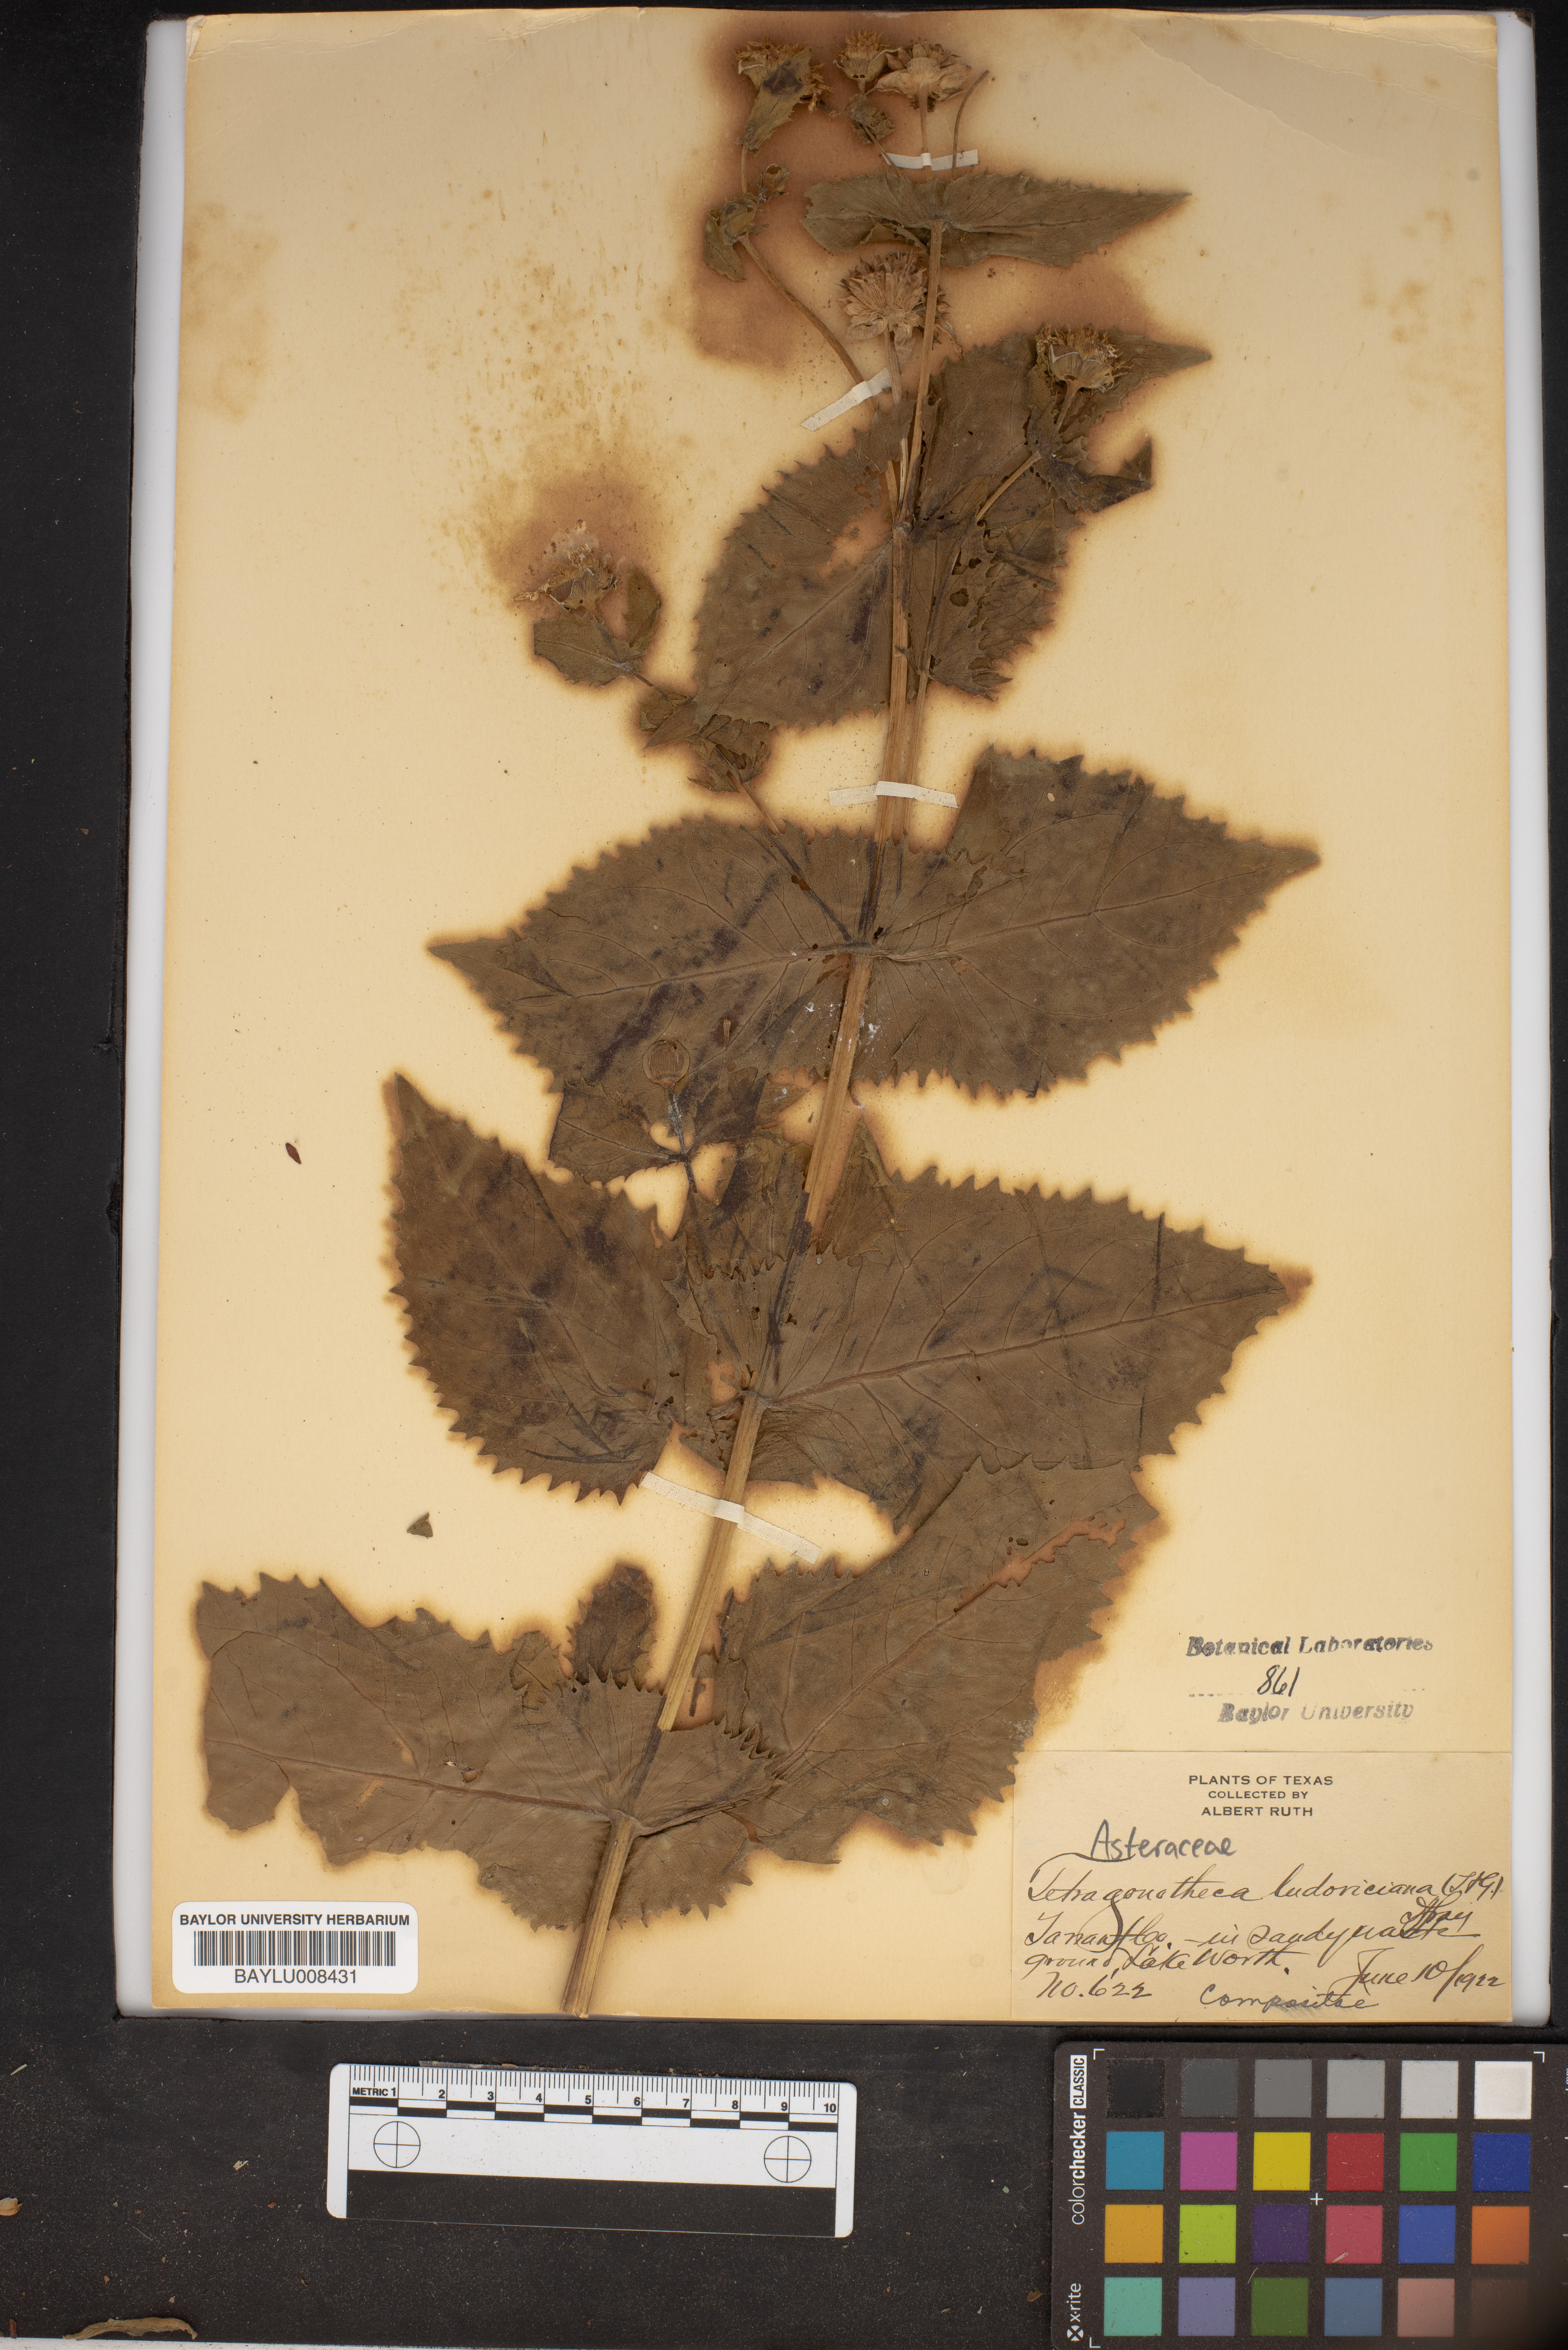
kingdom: Plantae
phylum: Tracheophyta
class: Magnoliopsida
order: Asterales
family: Asteraceae
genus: Tetragonotheca
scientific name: Tetragonotheca ludoviciana
